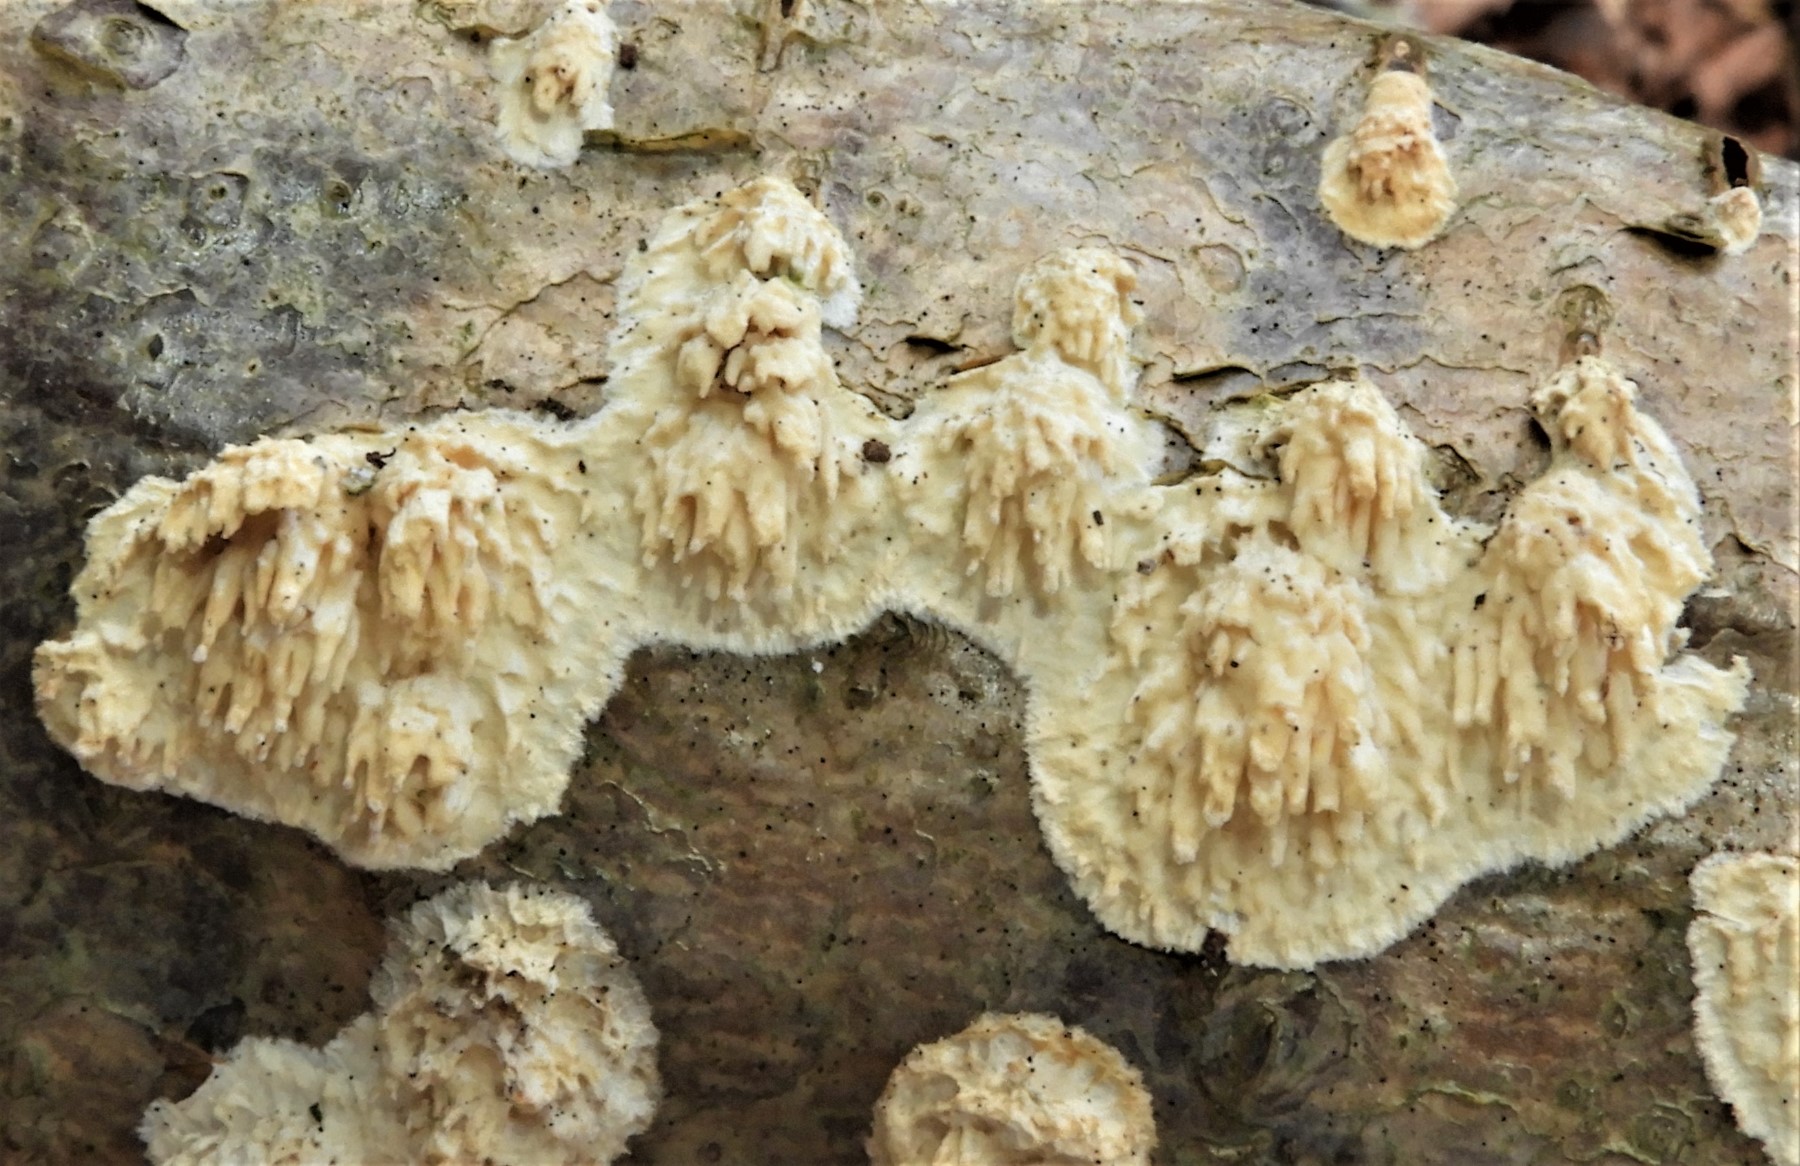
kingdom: Fungi
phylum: Basidiomycota
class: Agaricomycetes
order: Hymenochaetales
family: Schizoporaceae
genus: Xylodon
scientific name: Xylodon radula
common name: grovtandet kalkskind
